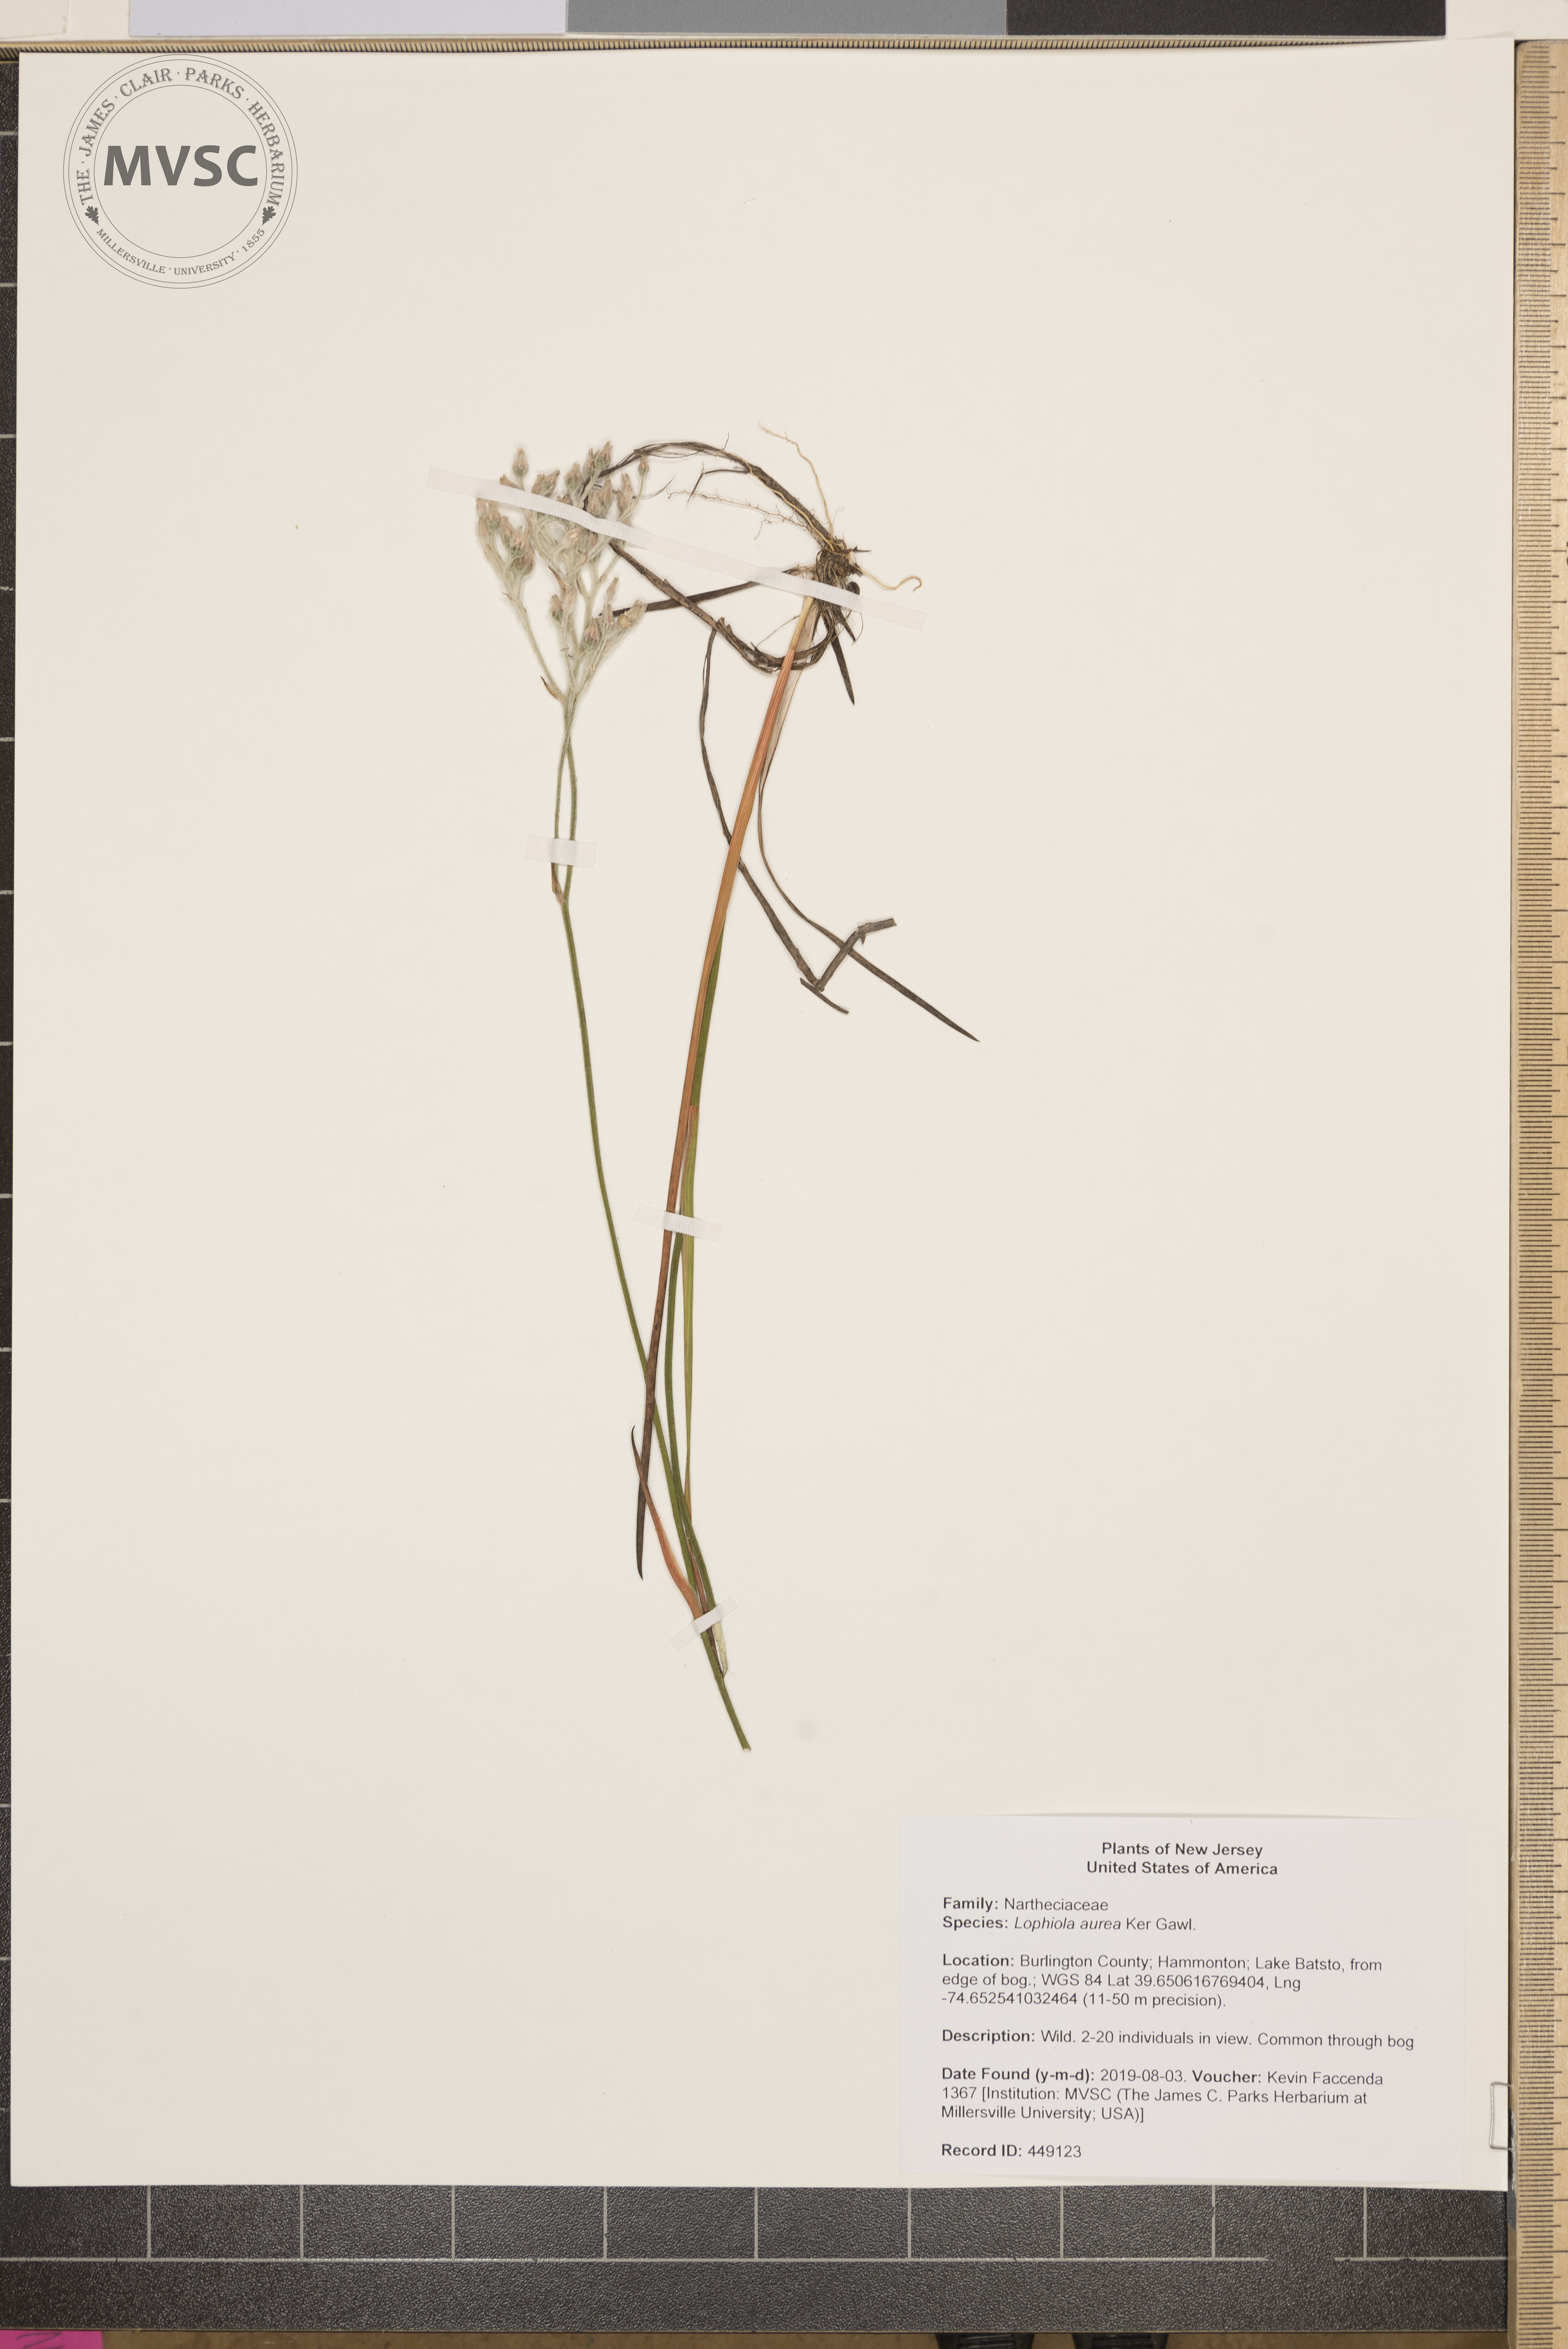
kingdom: Plantae
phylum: Tracheophyta
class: Liliopsida
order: Dioscoreales
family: Nartheciaceae
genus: Lophiola
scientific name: Lophiola aurea
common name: Golden-crest
